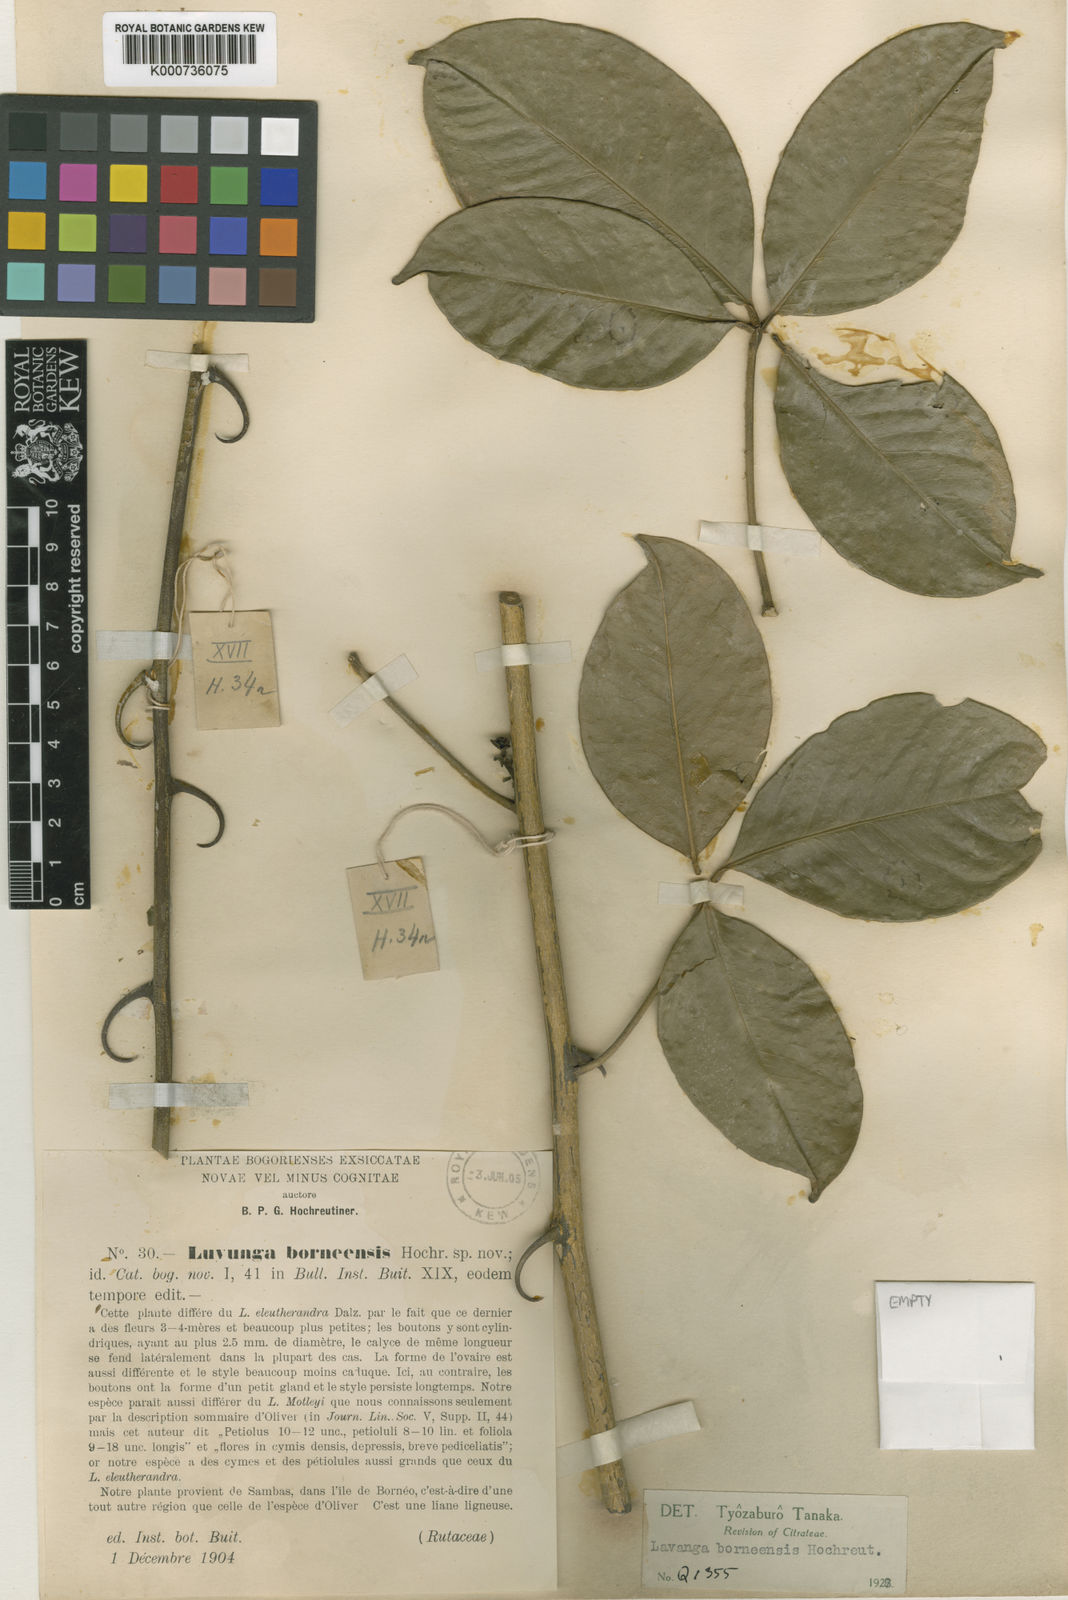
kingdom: Plantae
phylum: Tracheophyta
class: Magnoliopsida
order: Sapindales
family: Rutaceae
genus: Luvunga
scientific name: Luvunga borneensis
